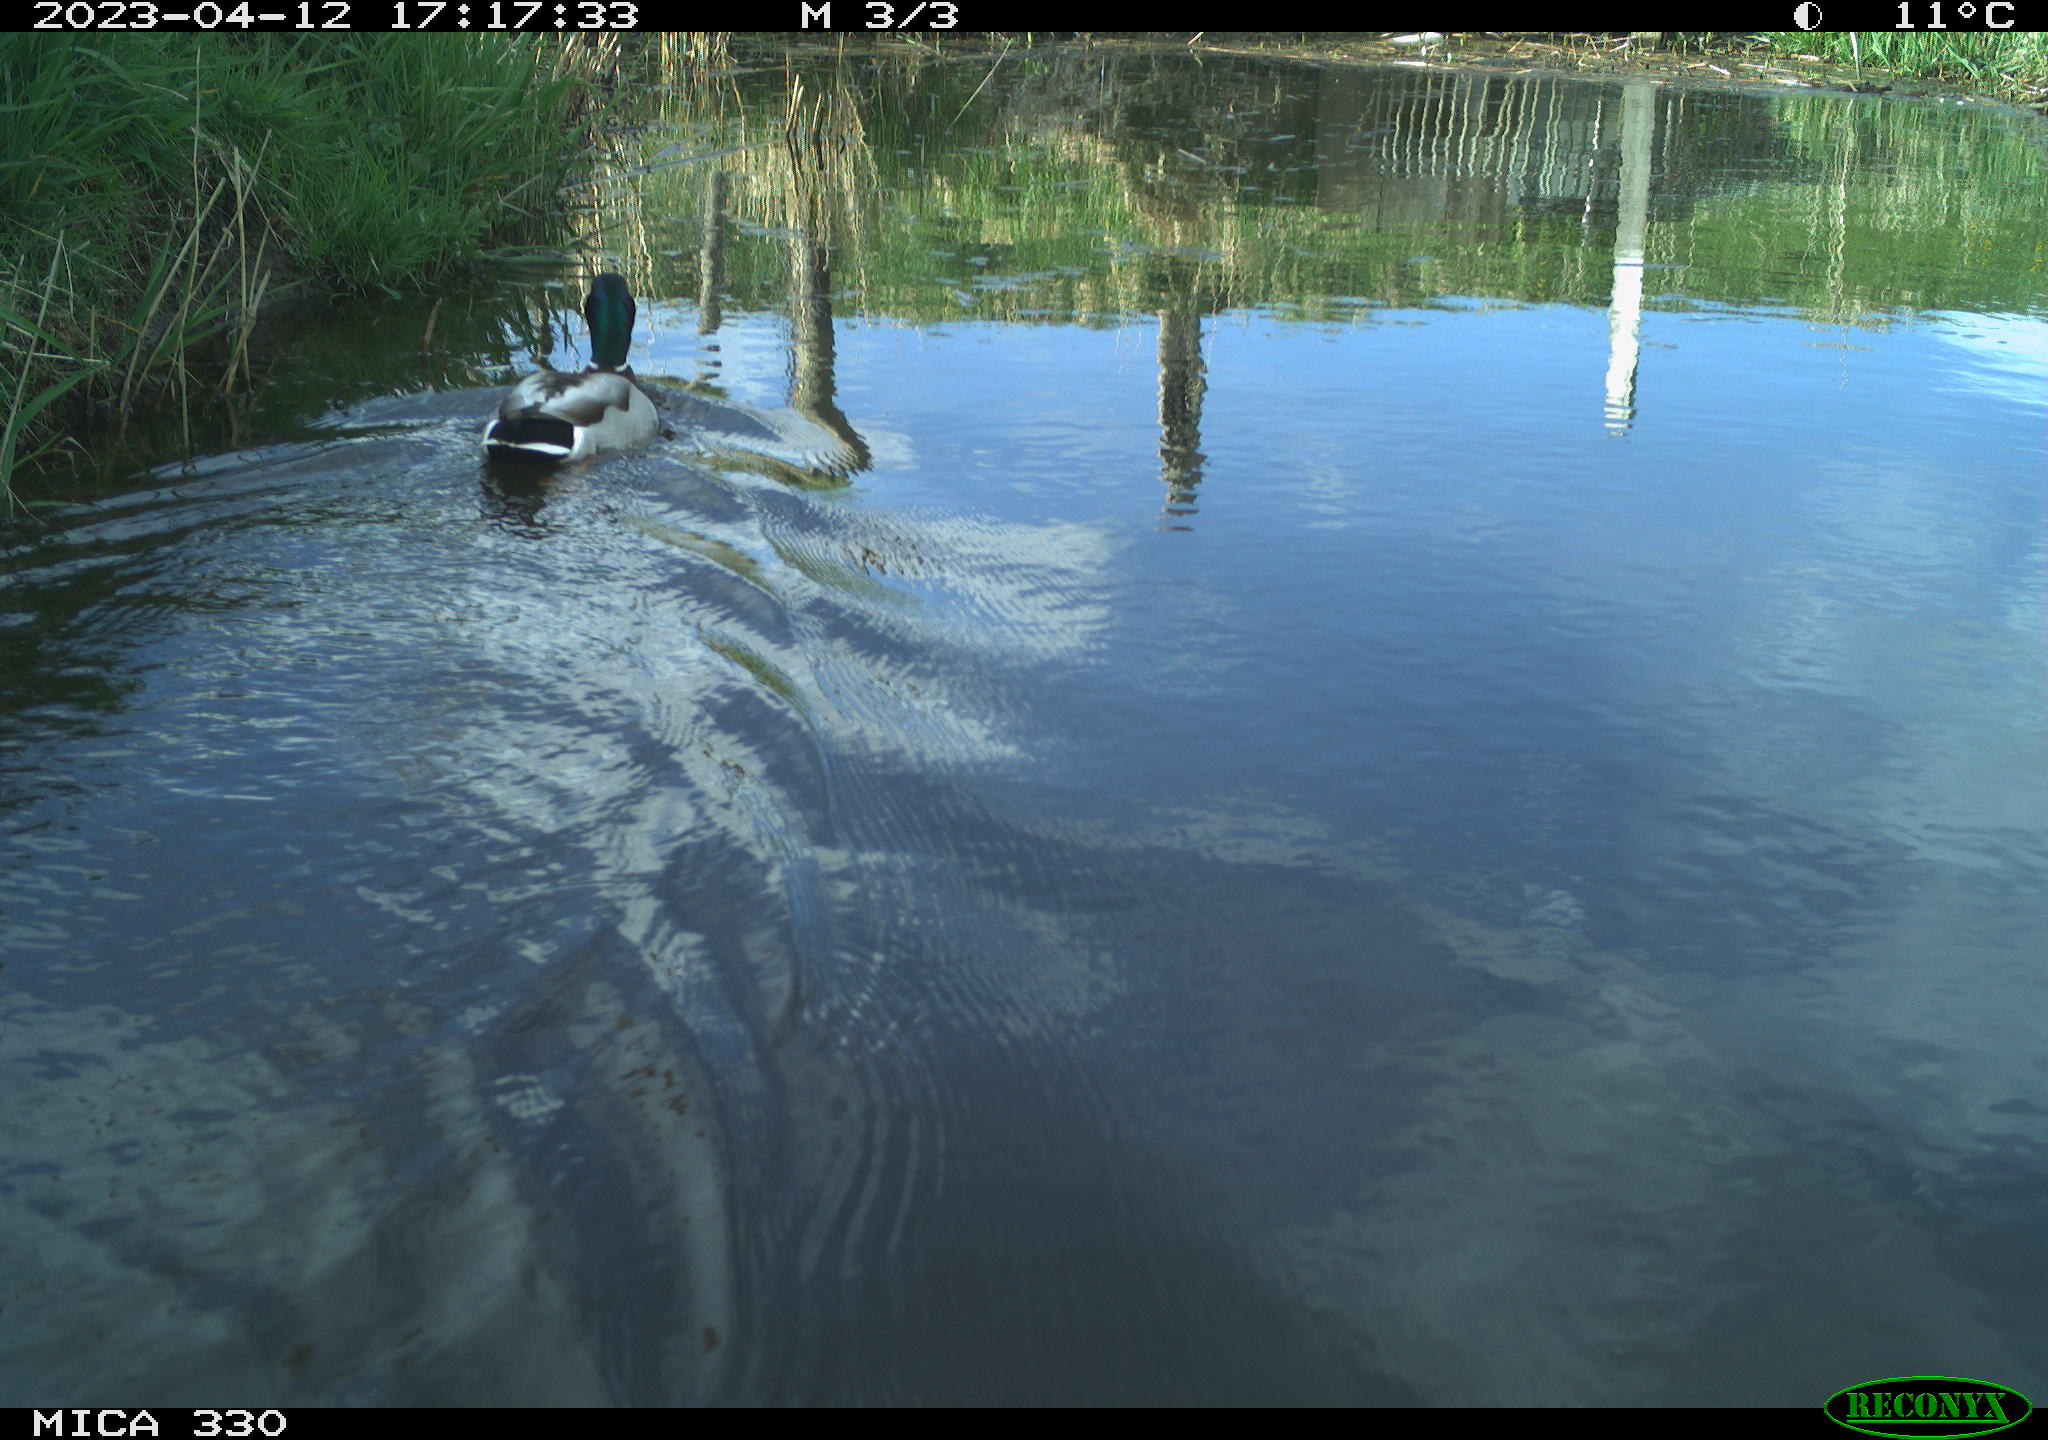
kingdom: Animalia
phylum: Chordata
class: Aves
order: Anseriformes
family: Anatidae
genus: Anas
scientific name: Anas
